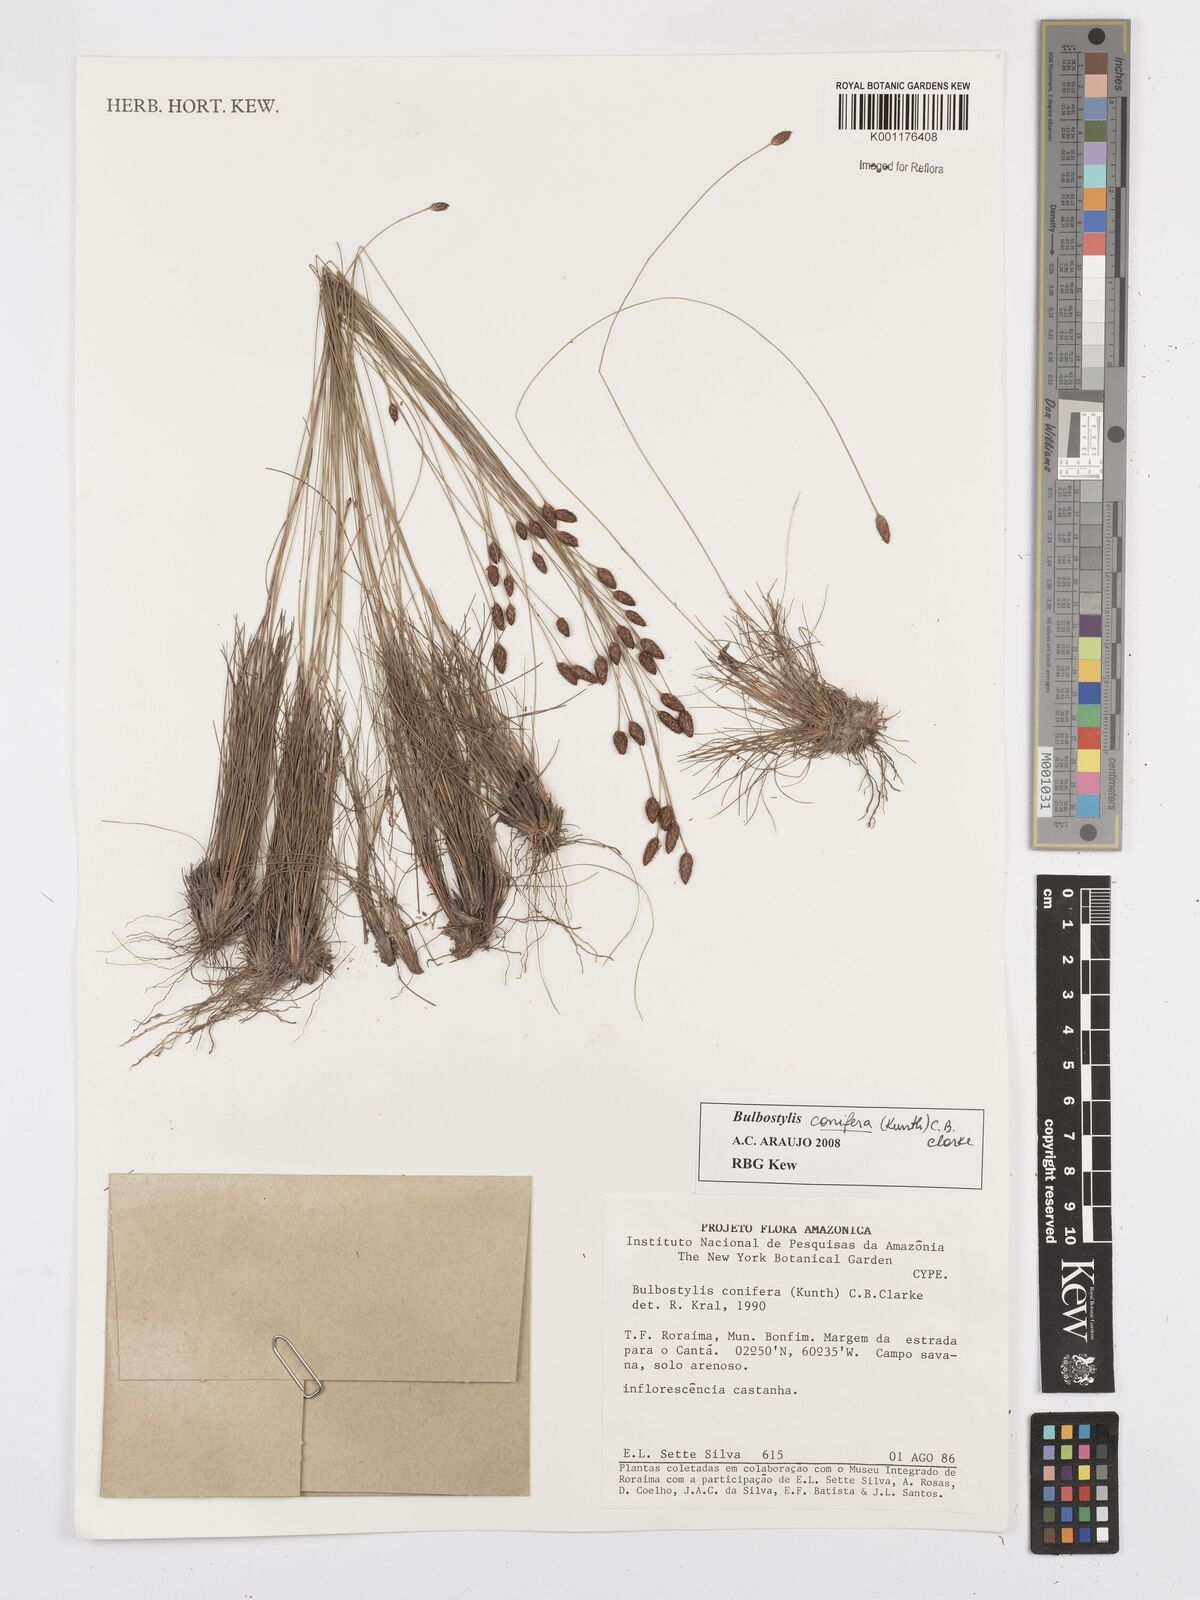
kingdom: Plantae
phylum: Tracheophyta
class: Liliopsida
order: Poales
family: Cyperaceae
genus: Bulbostylis
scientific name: Bulbostylis conifera
